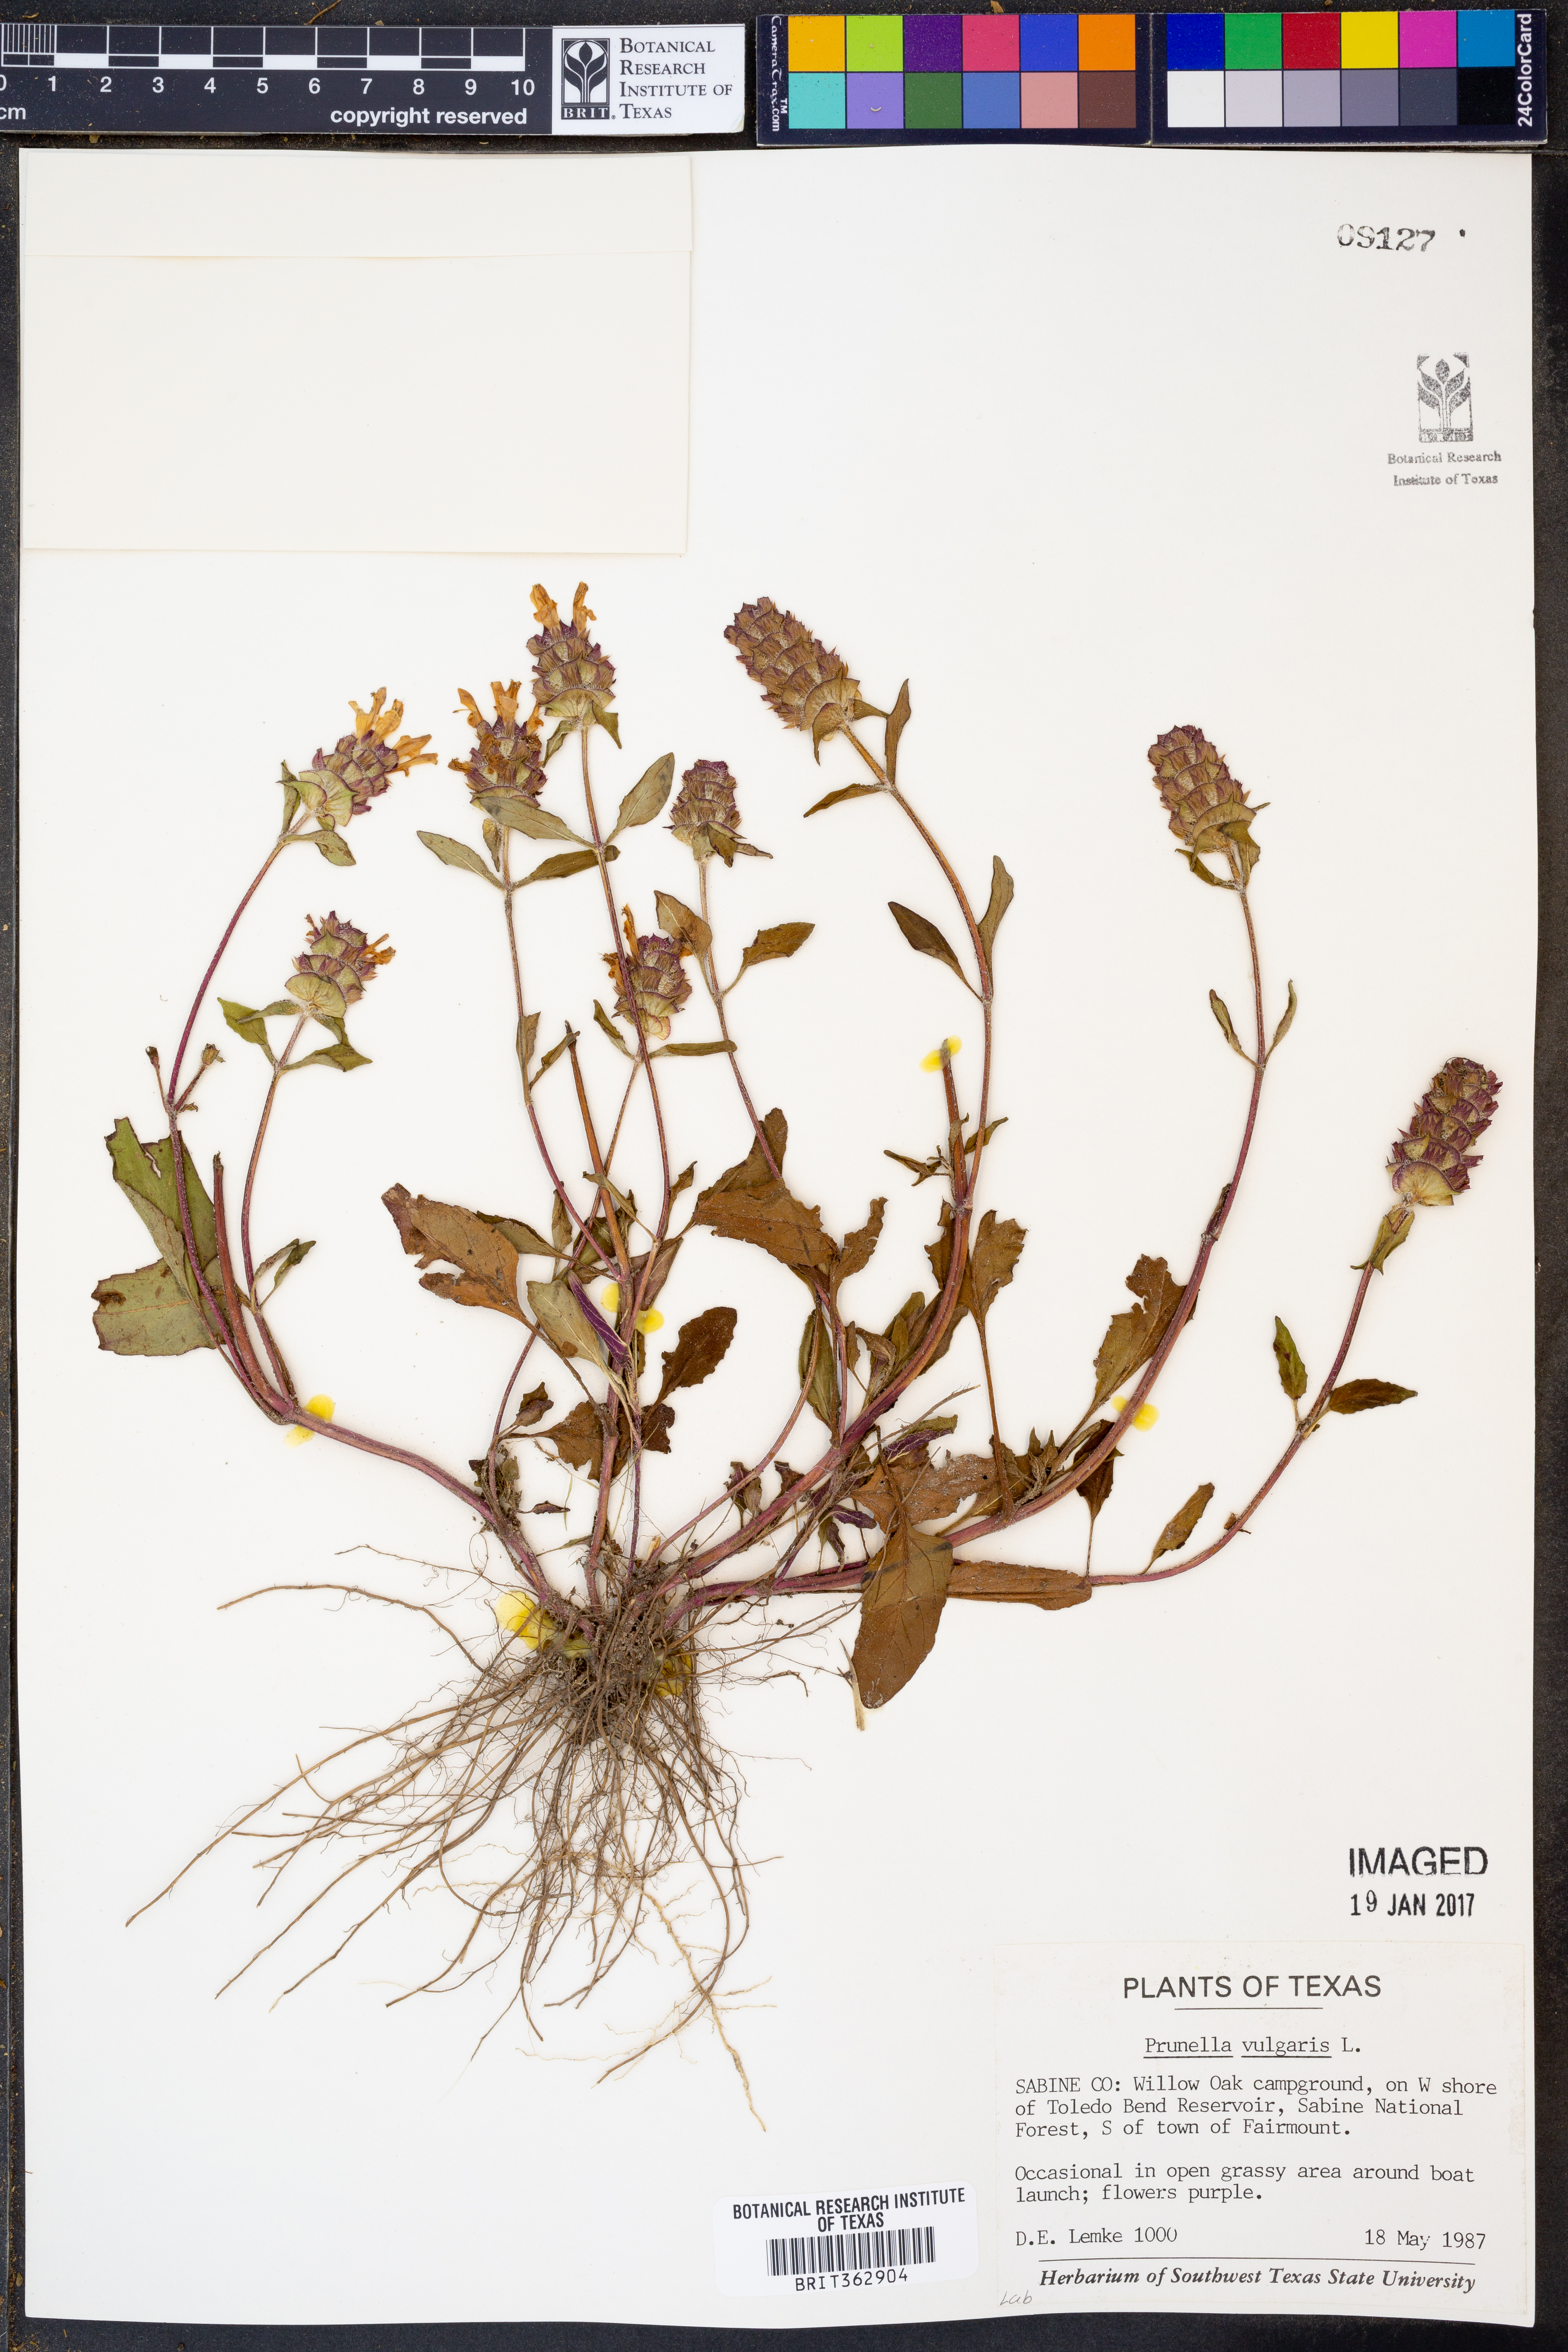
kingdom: Plantae
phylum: Tracheophyta
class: Magnoliopsida
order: Lamiales
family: Lamiaceae
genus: Prunella
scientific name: Prunella vulgaris
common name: Heal-all
